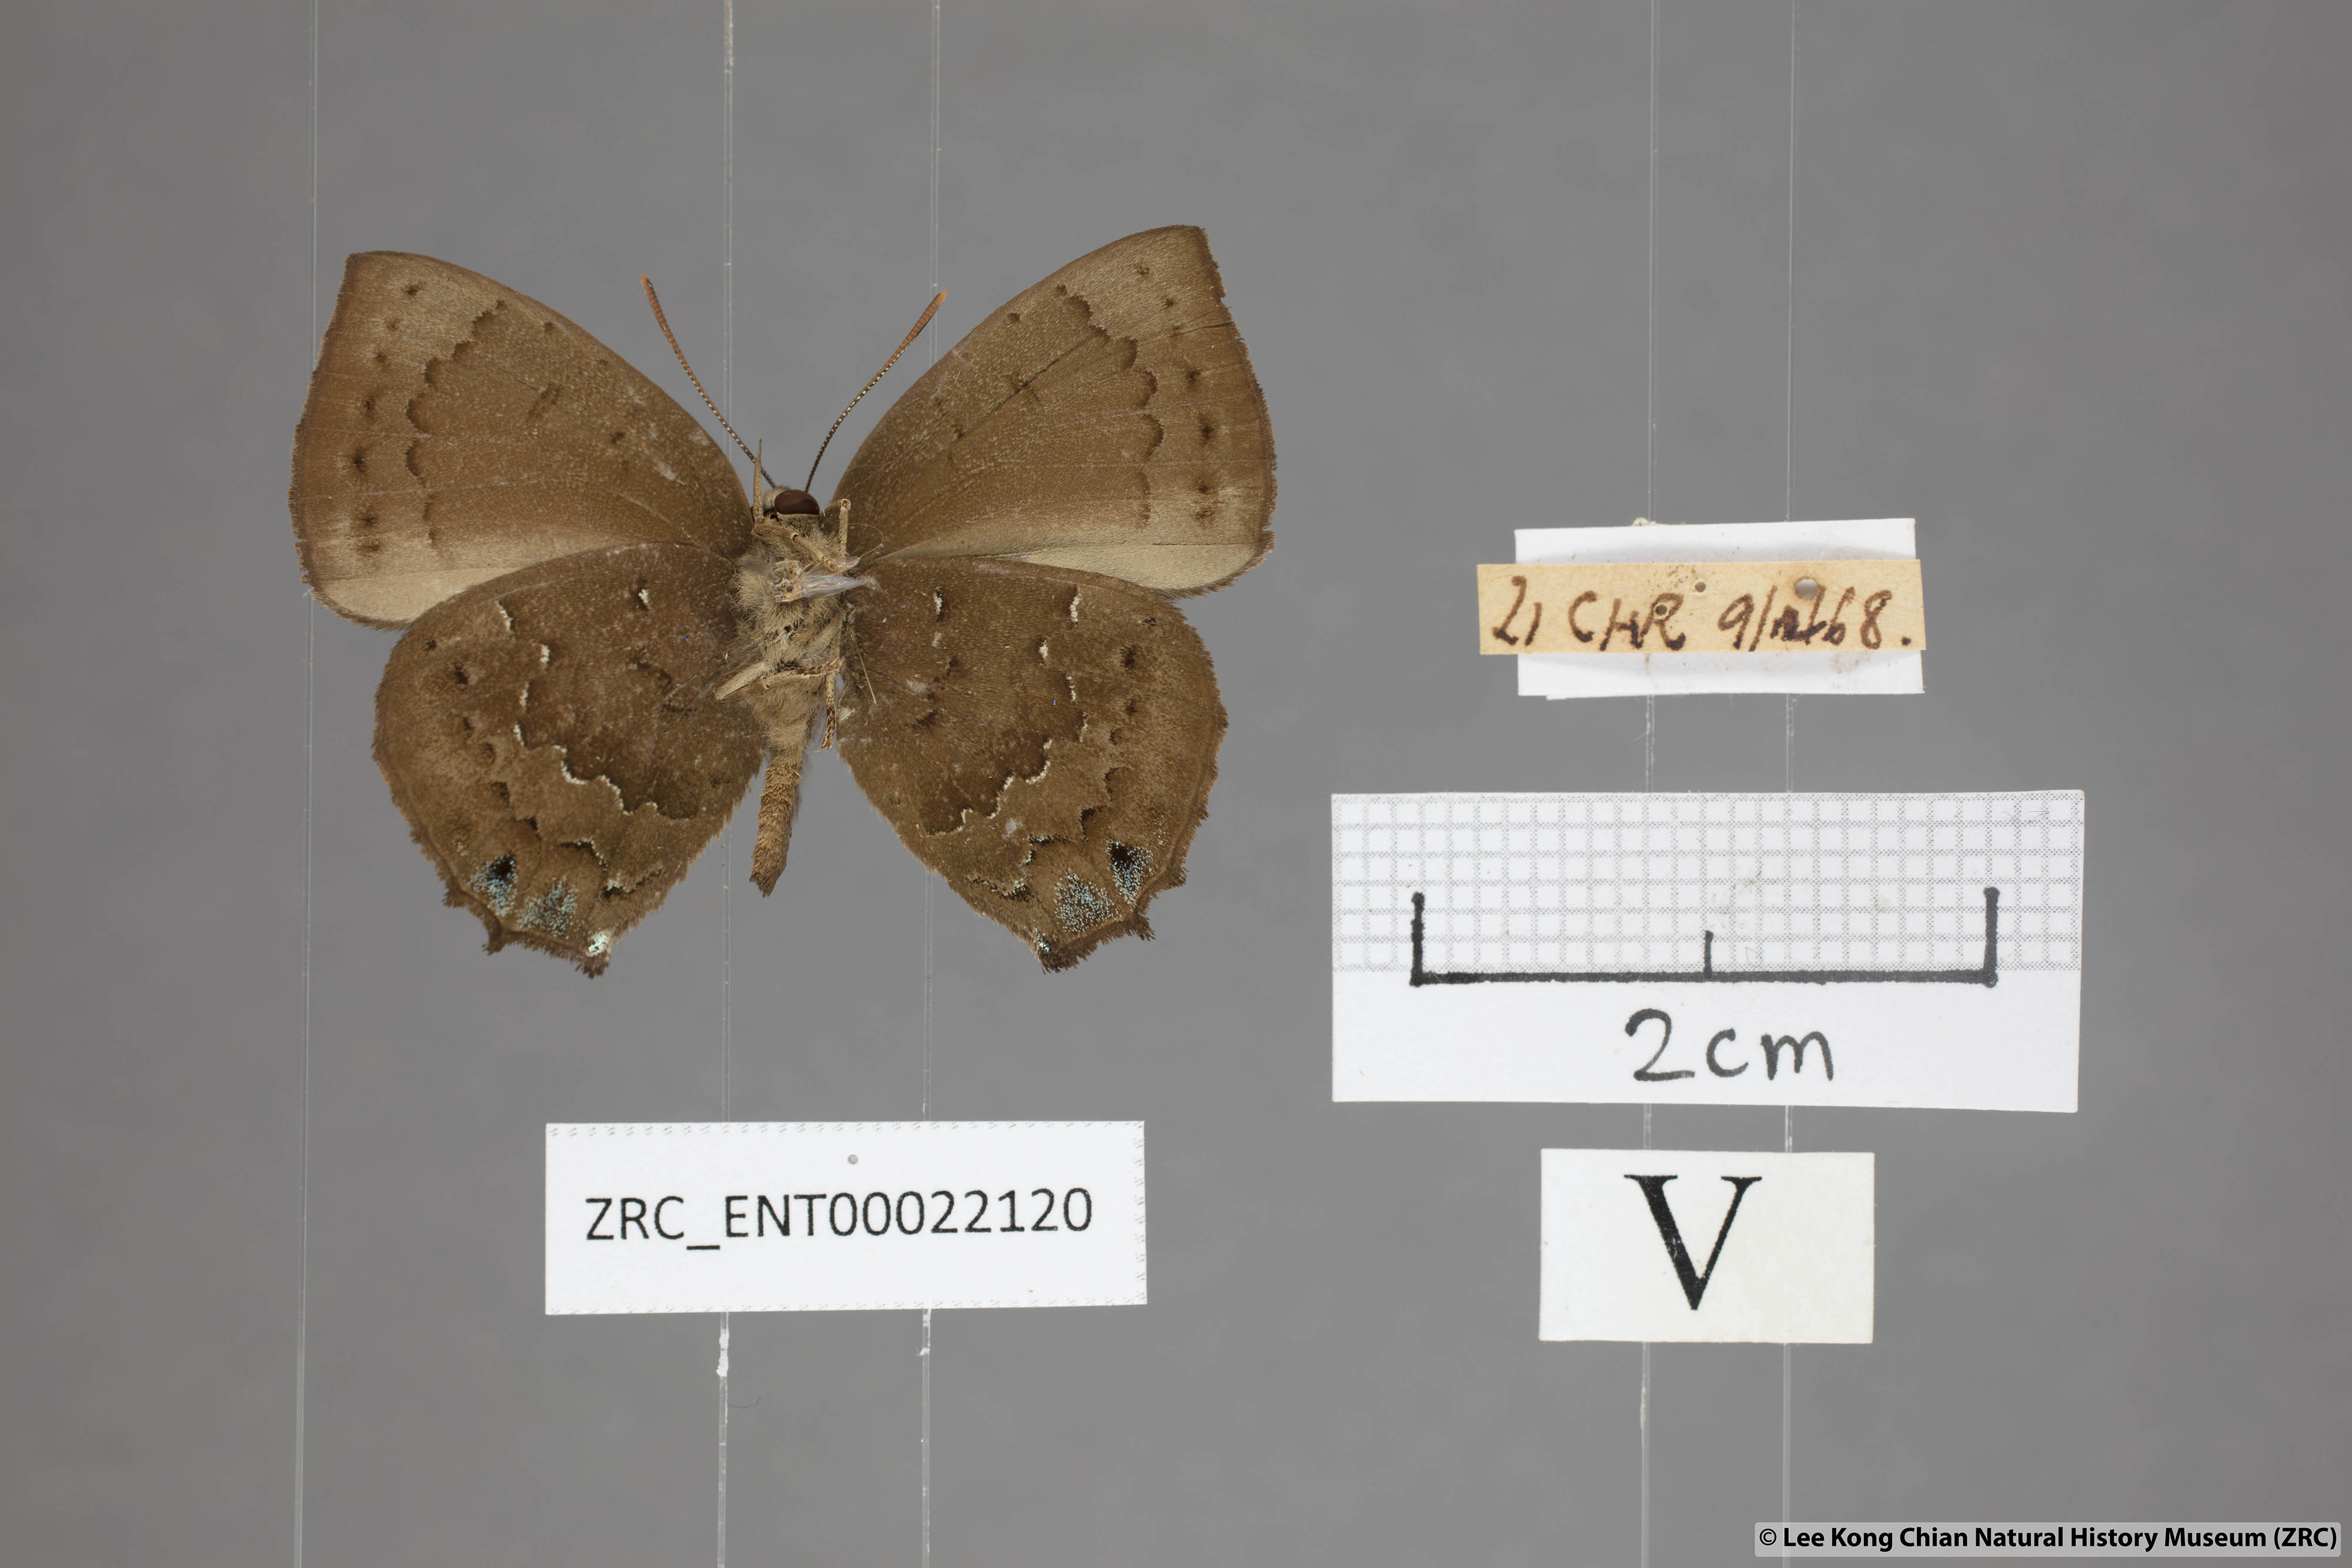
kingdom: Animalia
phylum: Arthropoda
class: Insecta
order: Lepidoptera
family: Lycaenidae
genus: Surendra
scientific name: Surendra florimel
